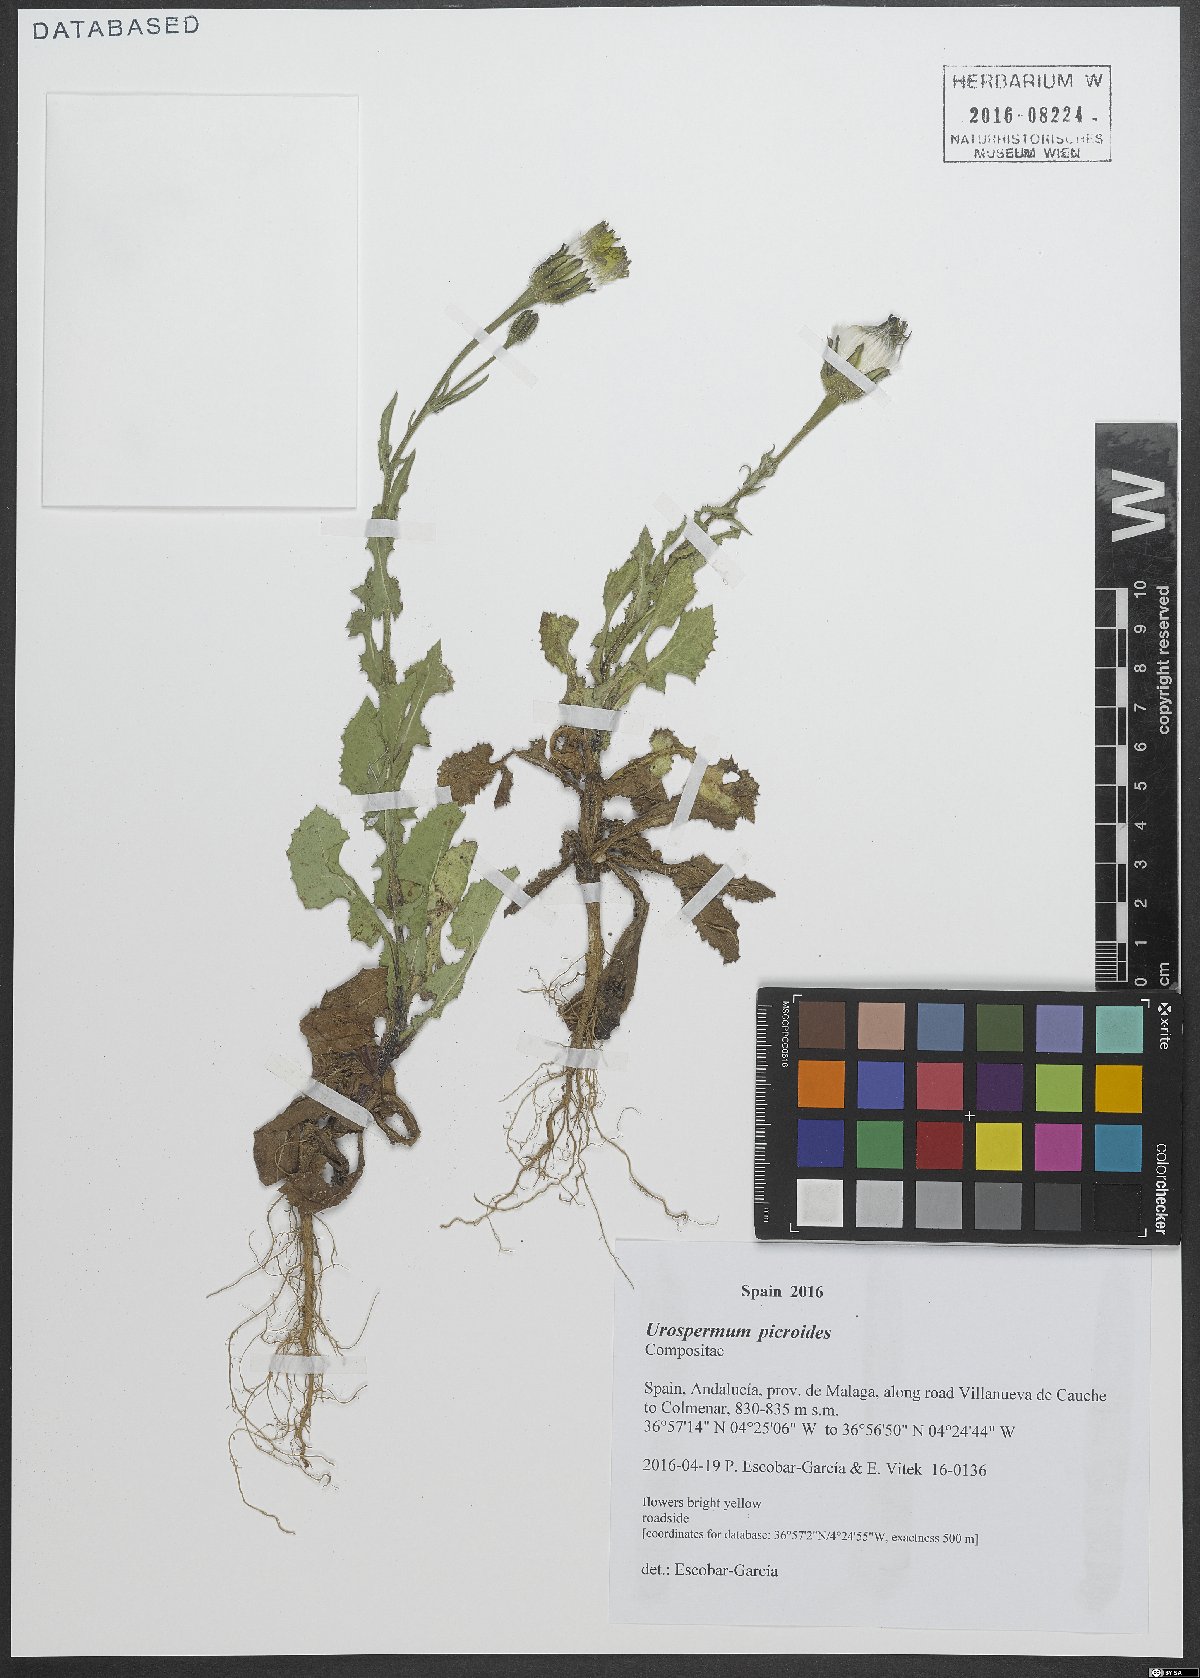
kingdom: Plantae
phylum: Tracheophyta
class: Magnoliopsida
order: Asterales
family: Asteraceae
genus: Urospermum
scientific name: Urospermum picroides
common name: False hawkbit
